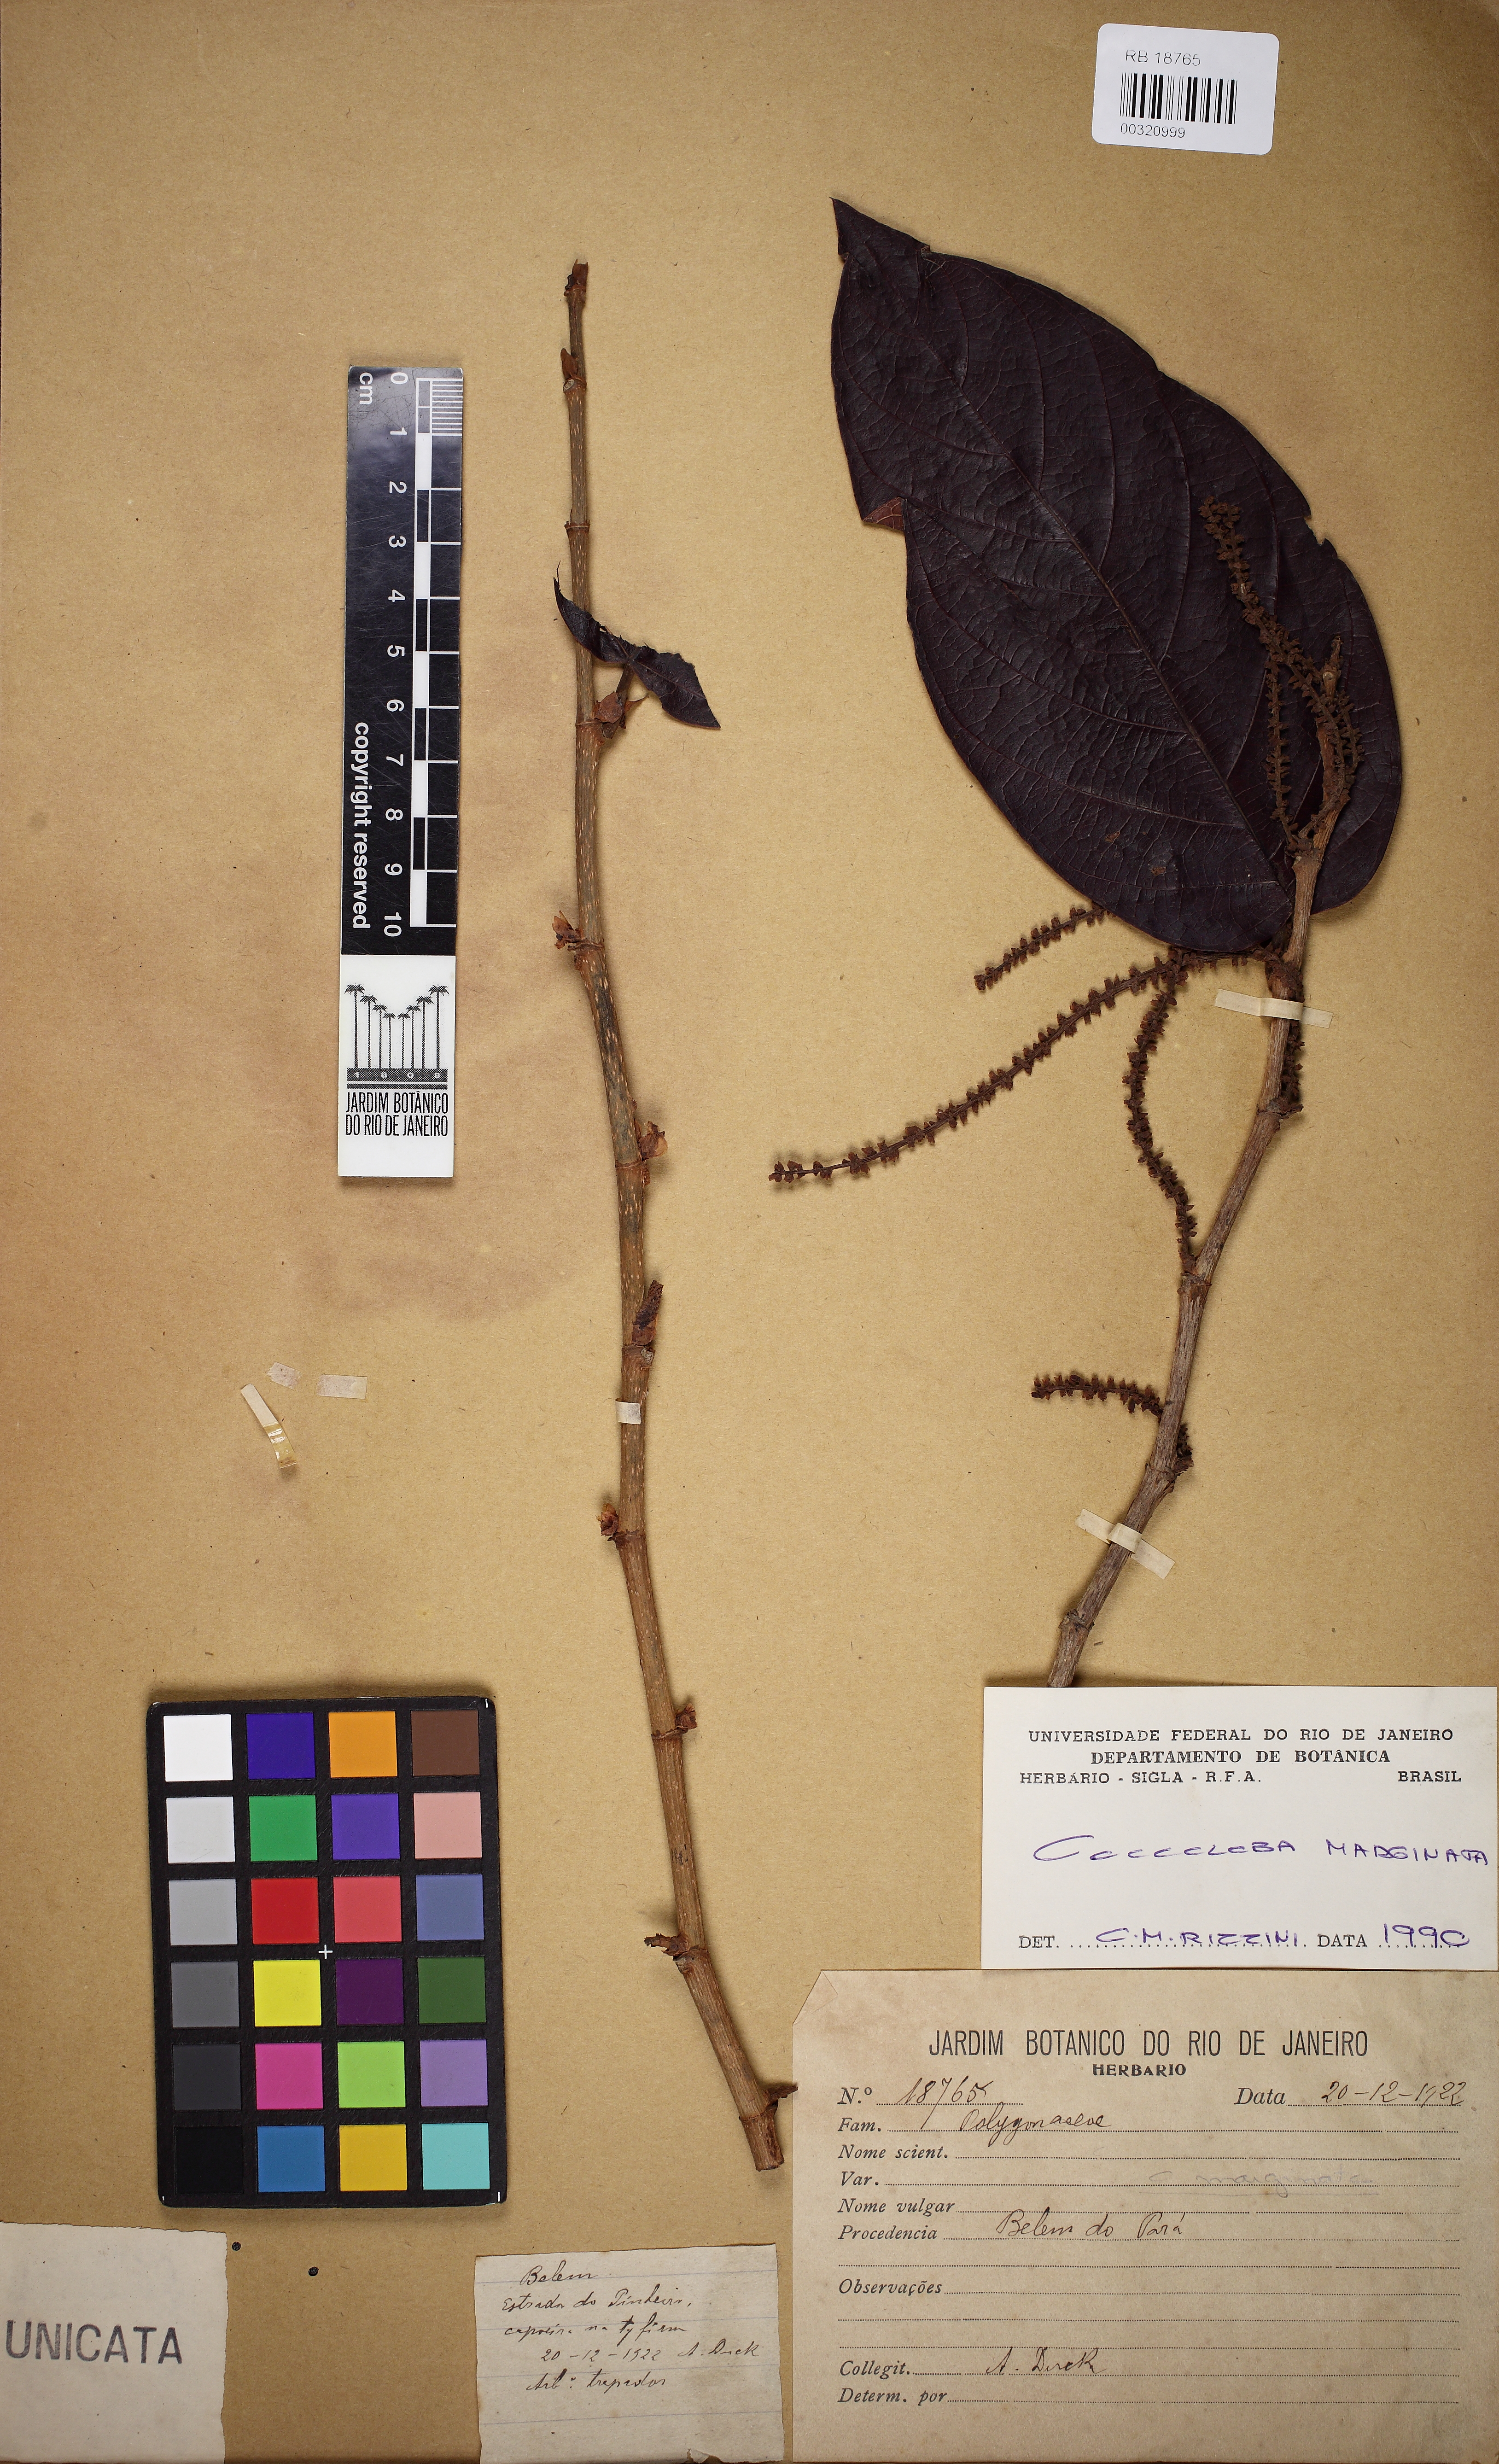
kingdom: Plantae
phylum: Tracheophyta
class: Magnoliopsida
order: Caryophyllales
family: Polygonaceae
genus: Coccoloba
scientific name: Coccoloba nitida
